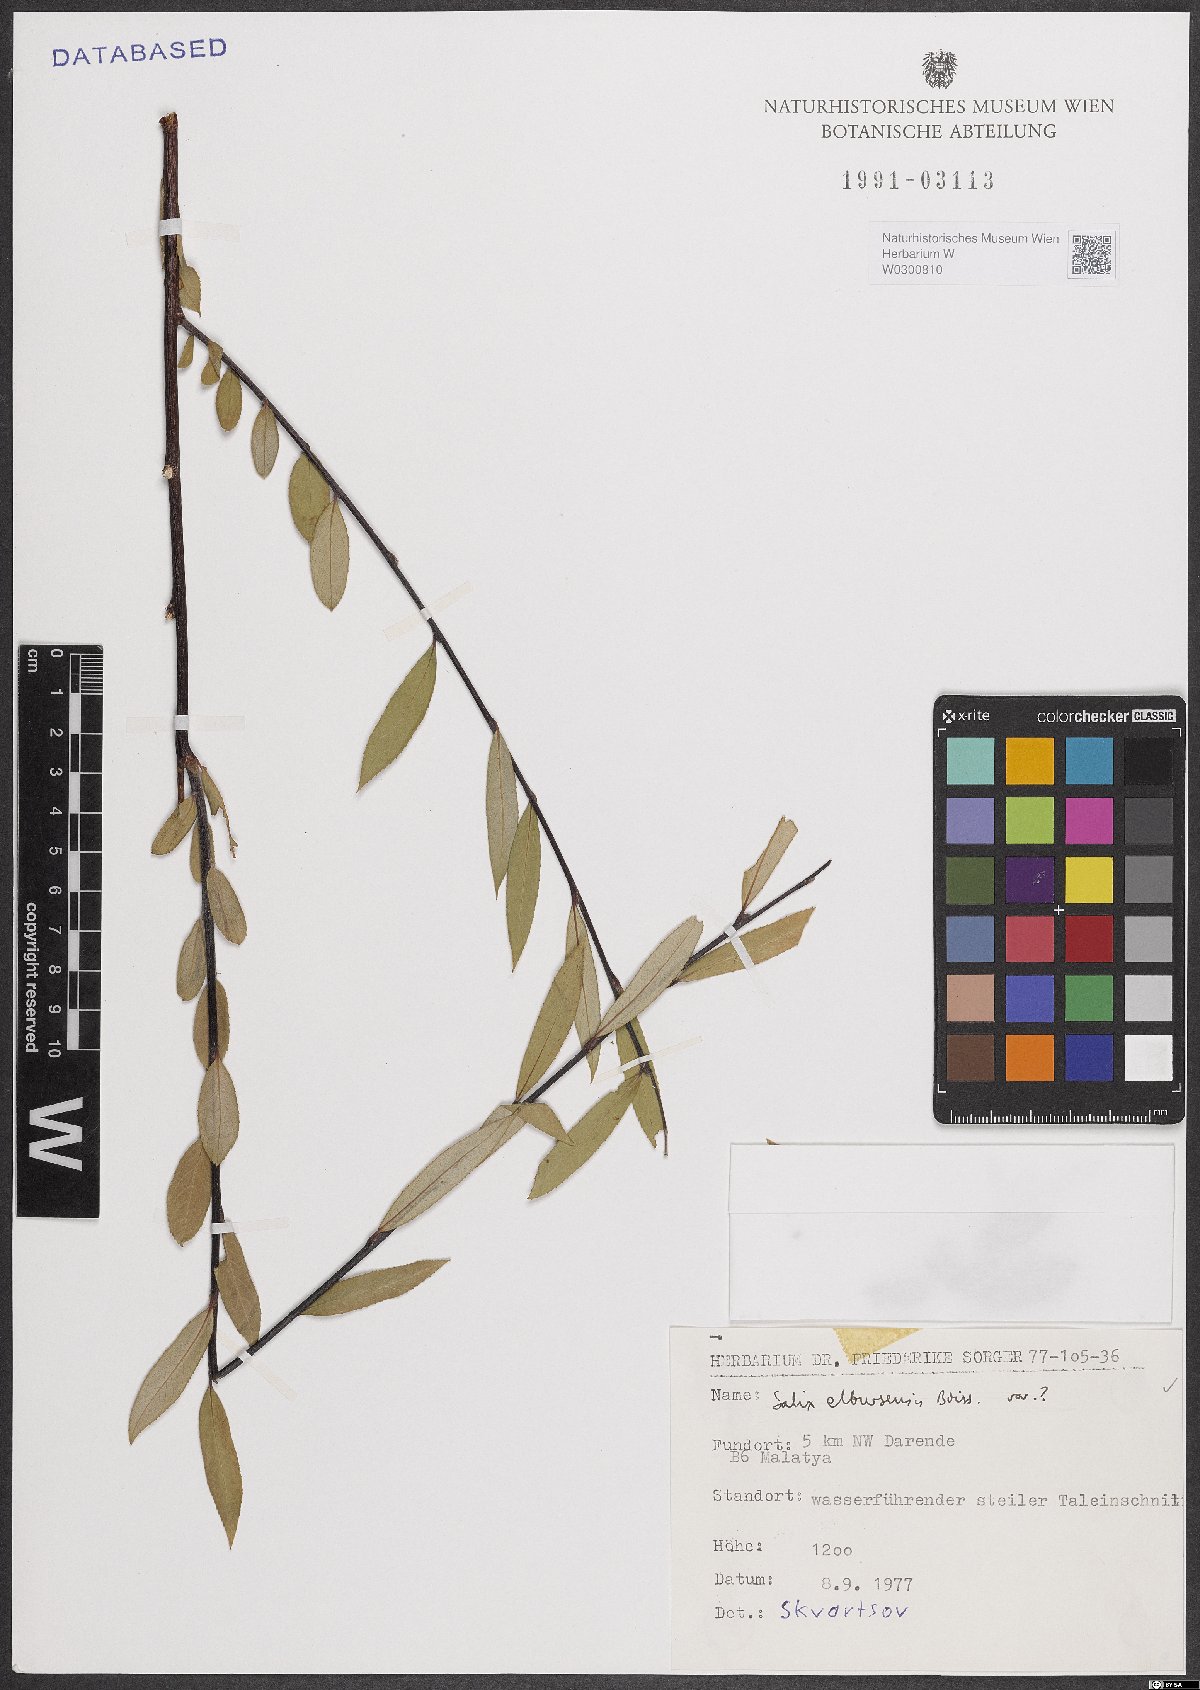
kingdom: Plantae
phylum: Tracheophyta
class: Magnoliopsida
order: Malpighiales
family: Salicaceae
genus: Salix
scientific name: Salix elbursensis
